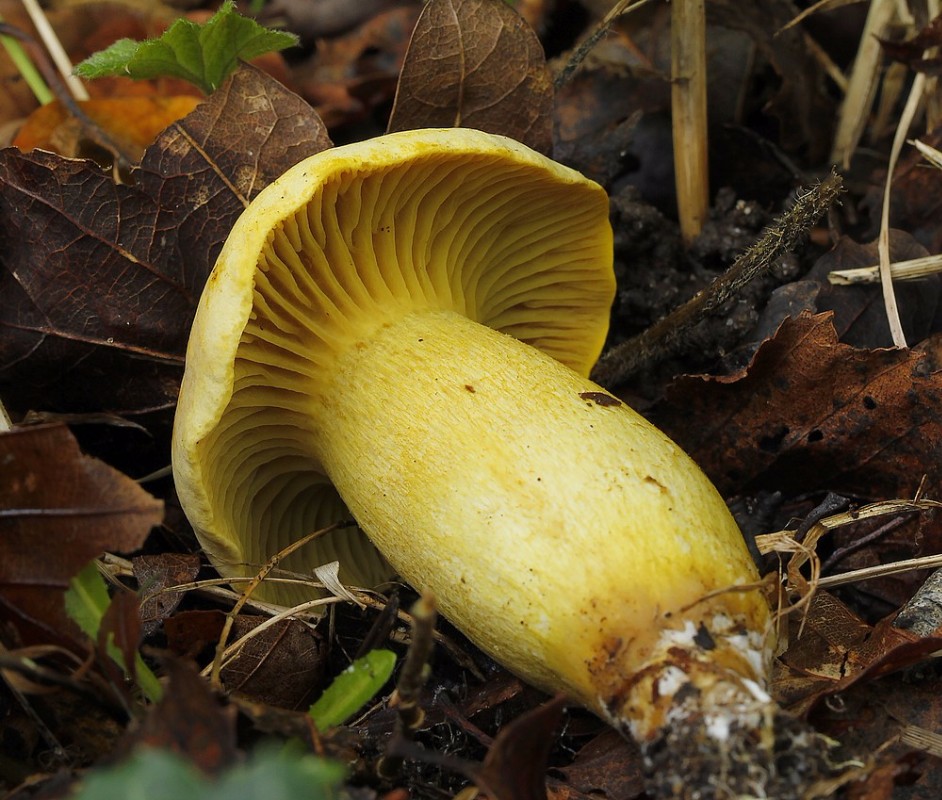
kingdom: Fungi
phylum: Basidiomycota
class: Agaricomycetes
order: Agaricales
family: Tricholomataceae
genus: Tricholoma
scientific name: Tricholoma sulphureum
